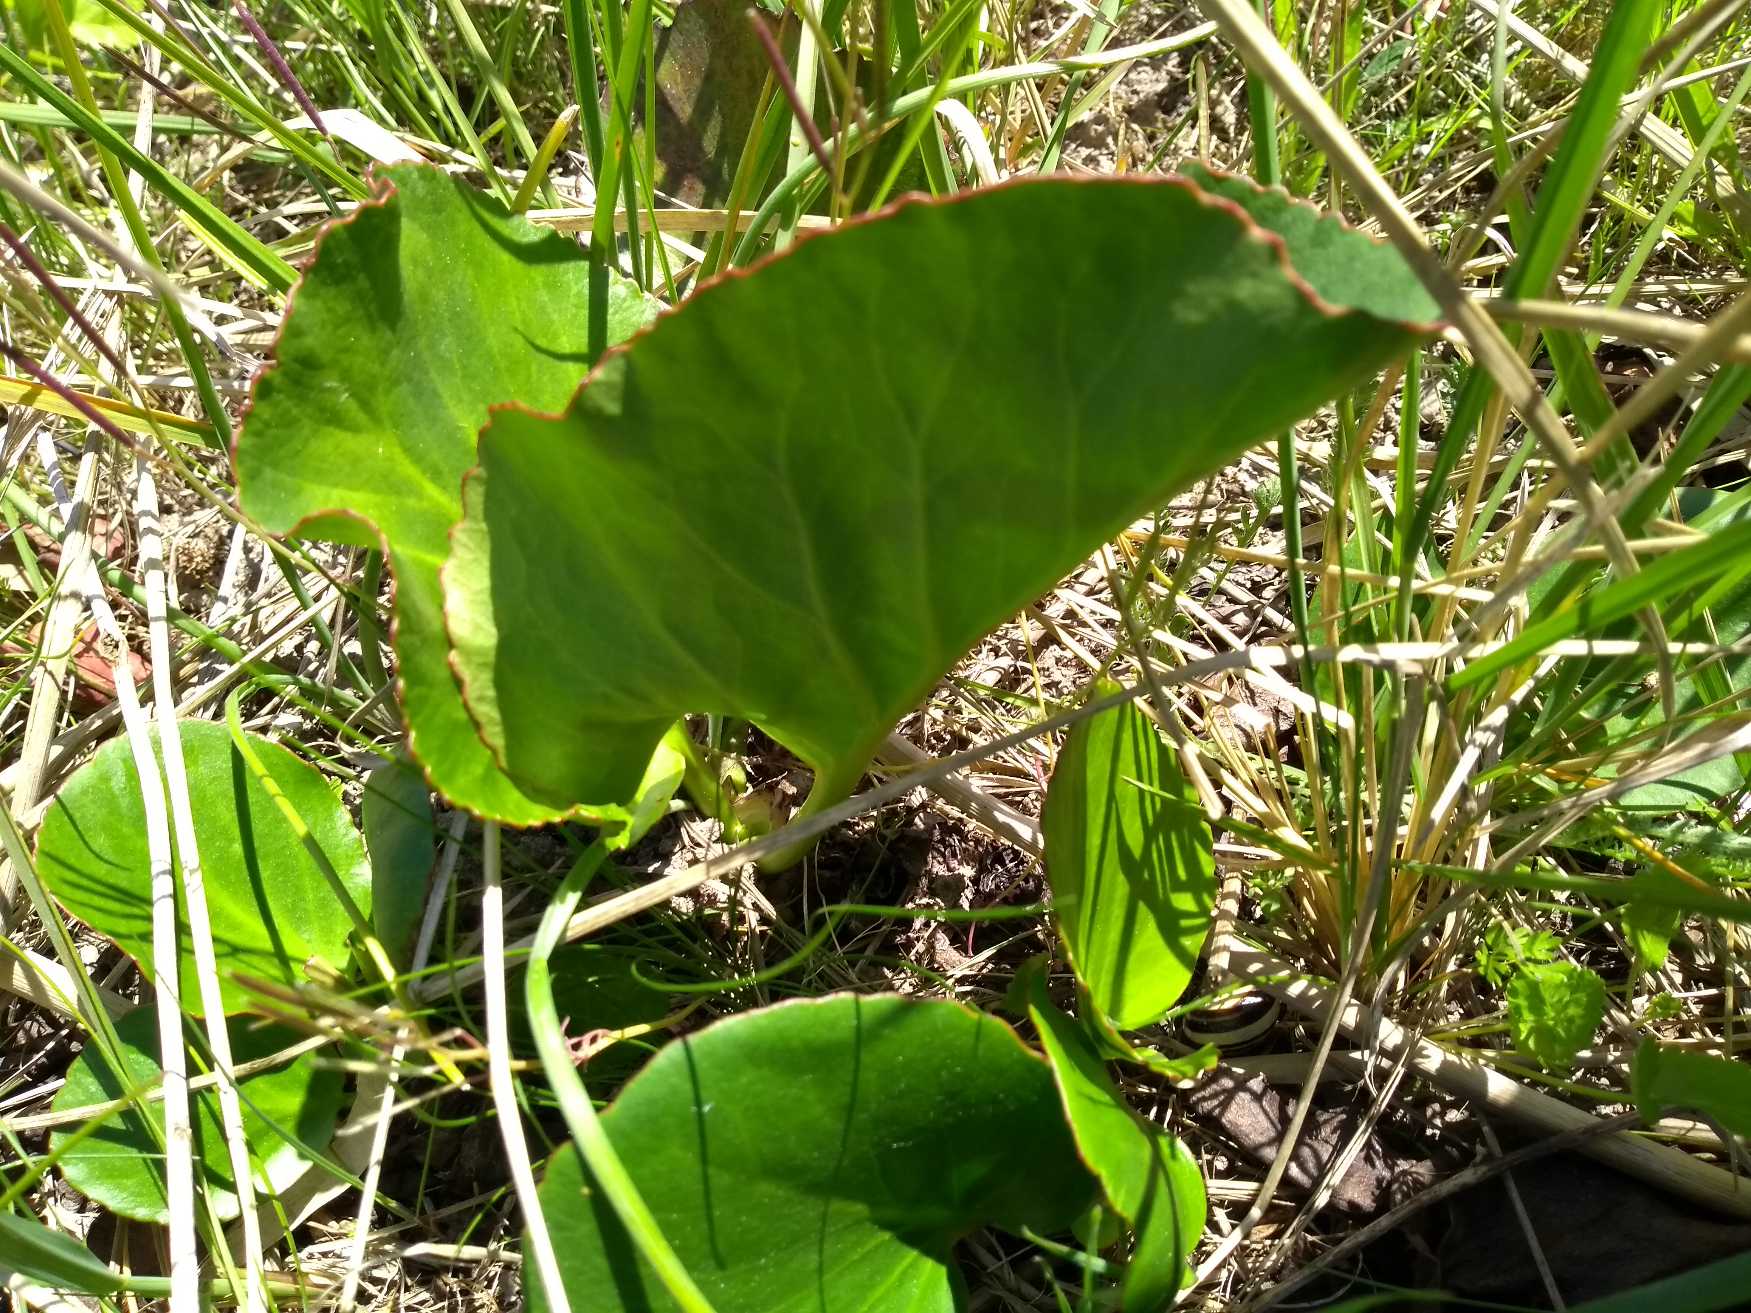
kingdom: Plantae
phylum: Tracheophyta
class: Magnoliopsida
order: Saxifragales
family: Saxifragaceae
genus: Bergenia
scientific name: Bergenia crassifolia
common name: Almindelig kæmpestenbræk
